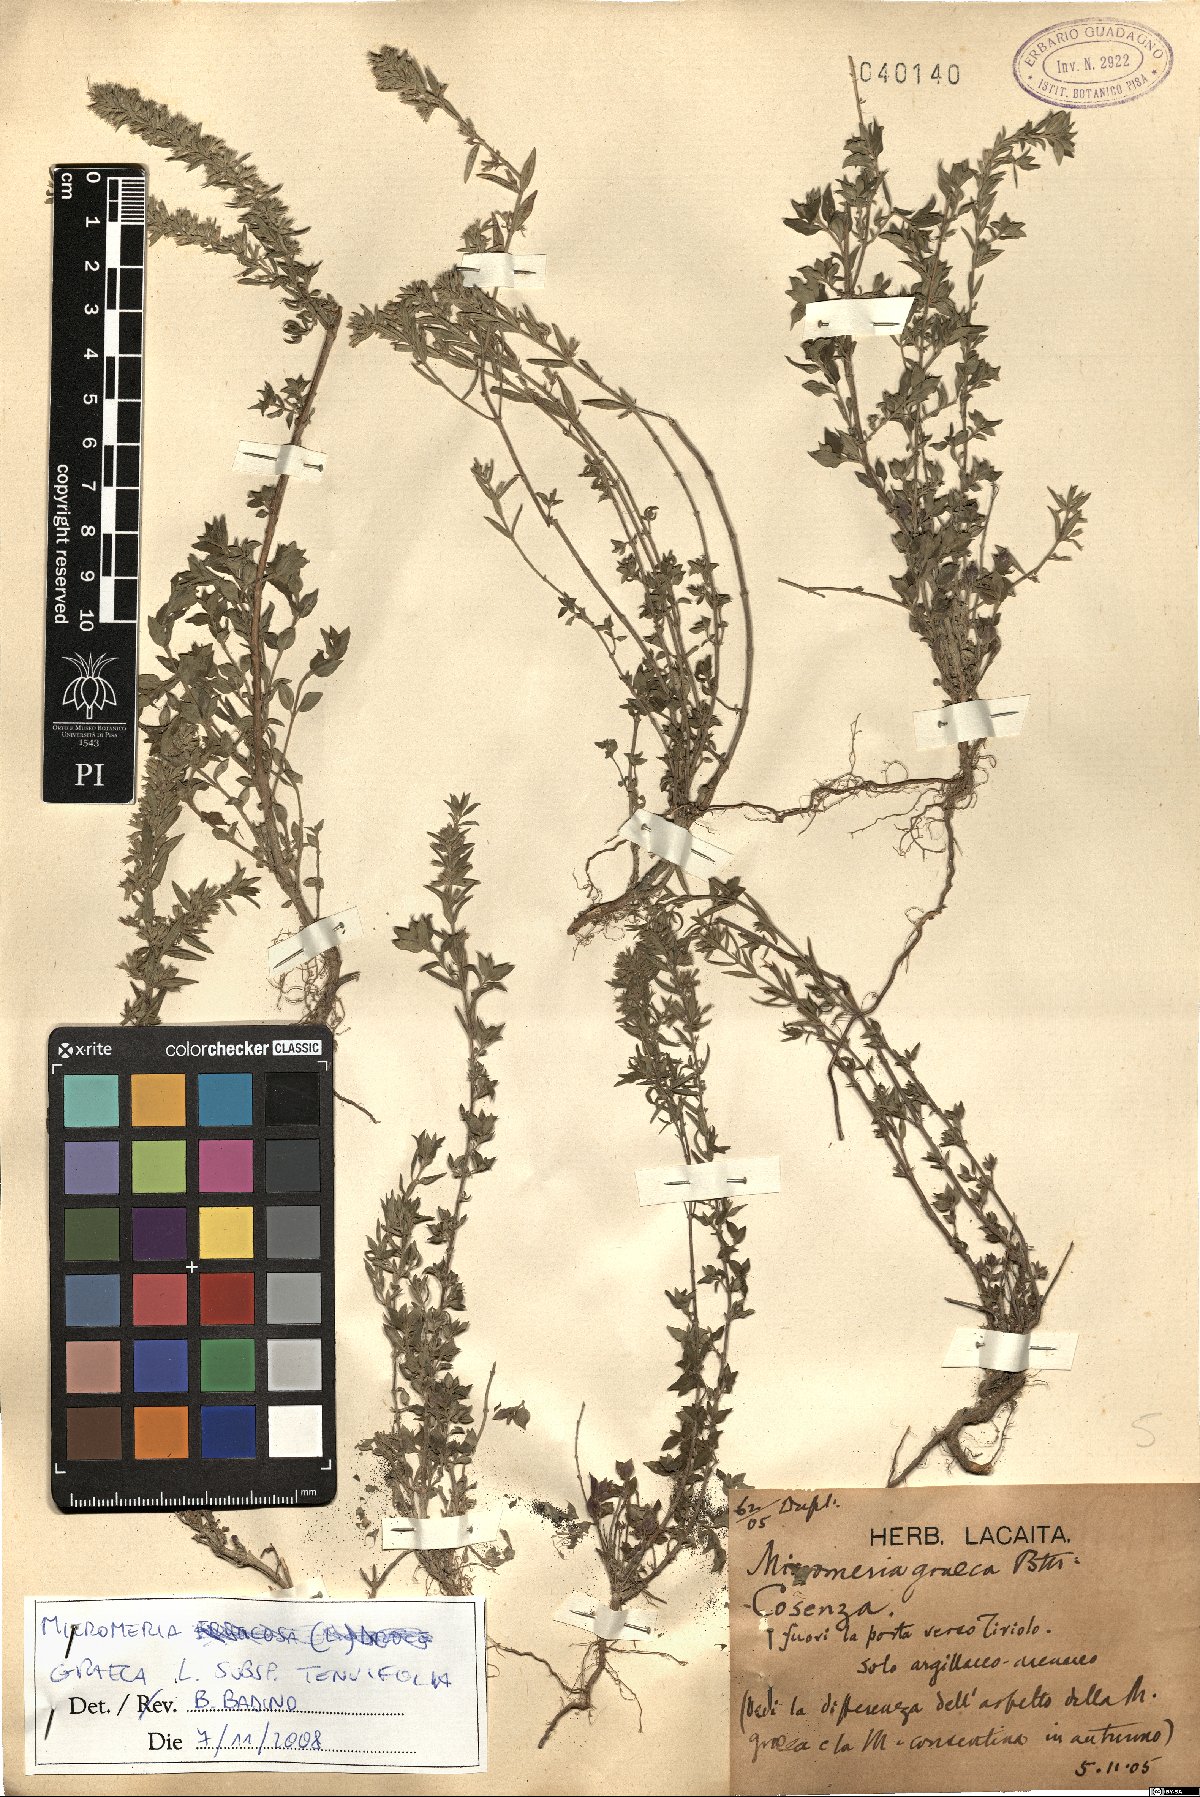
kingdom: Plantae
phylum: Tracheophyta
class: Magnoliopsida
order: Lamiales
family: Lamiaceae
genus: Micromeria
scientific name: Micromeria graeca
